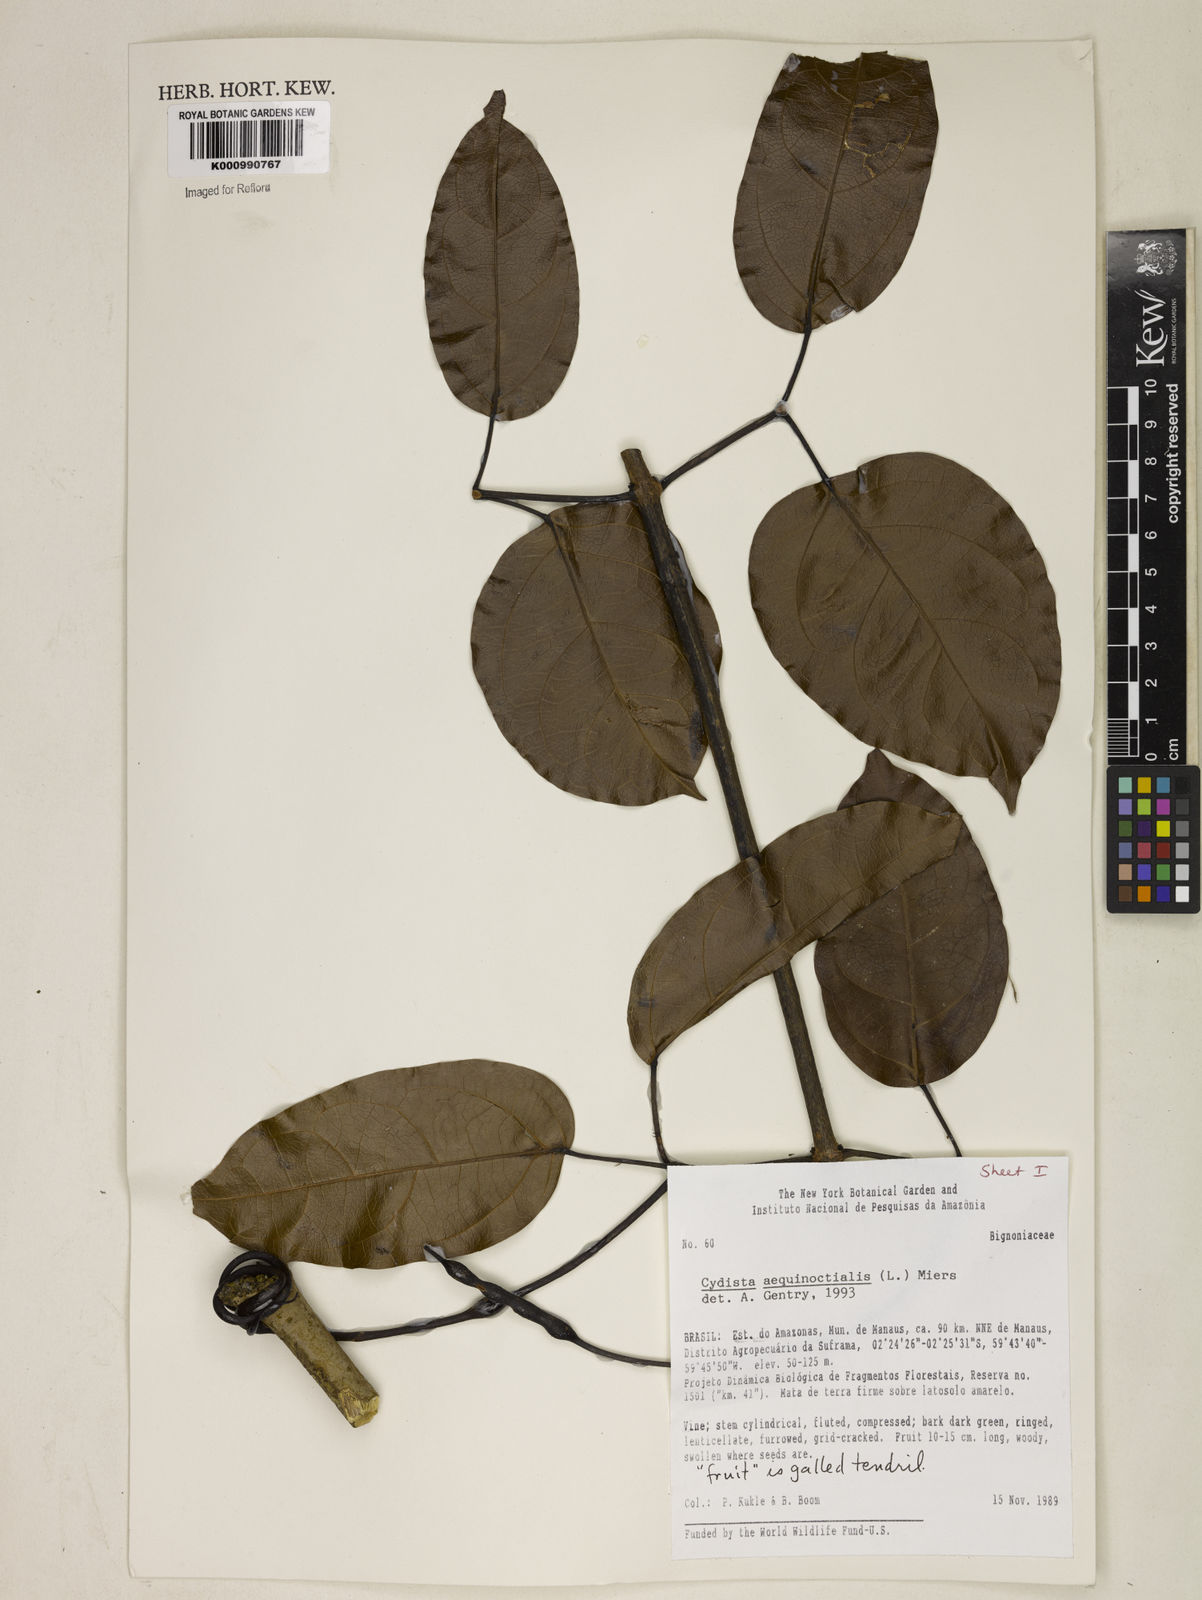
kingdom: Plantae
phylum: Tracheophyta
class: Magnoliopsida
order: Lamiales
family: Bignoniaceae
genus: Bignonia
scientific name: Bignonia aequinoctialis
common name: Garlicvine
